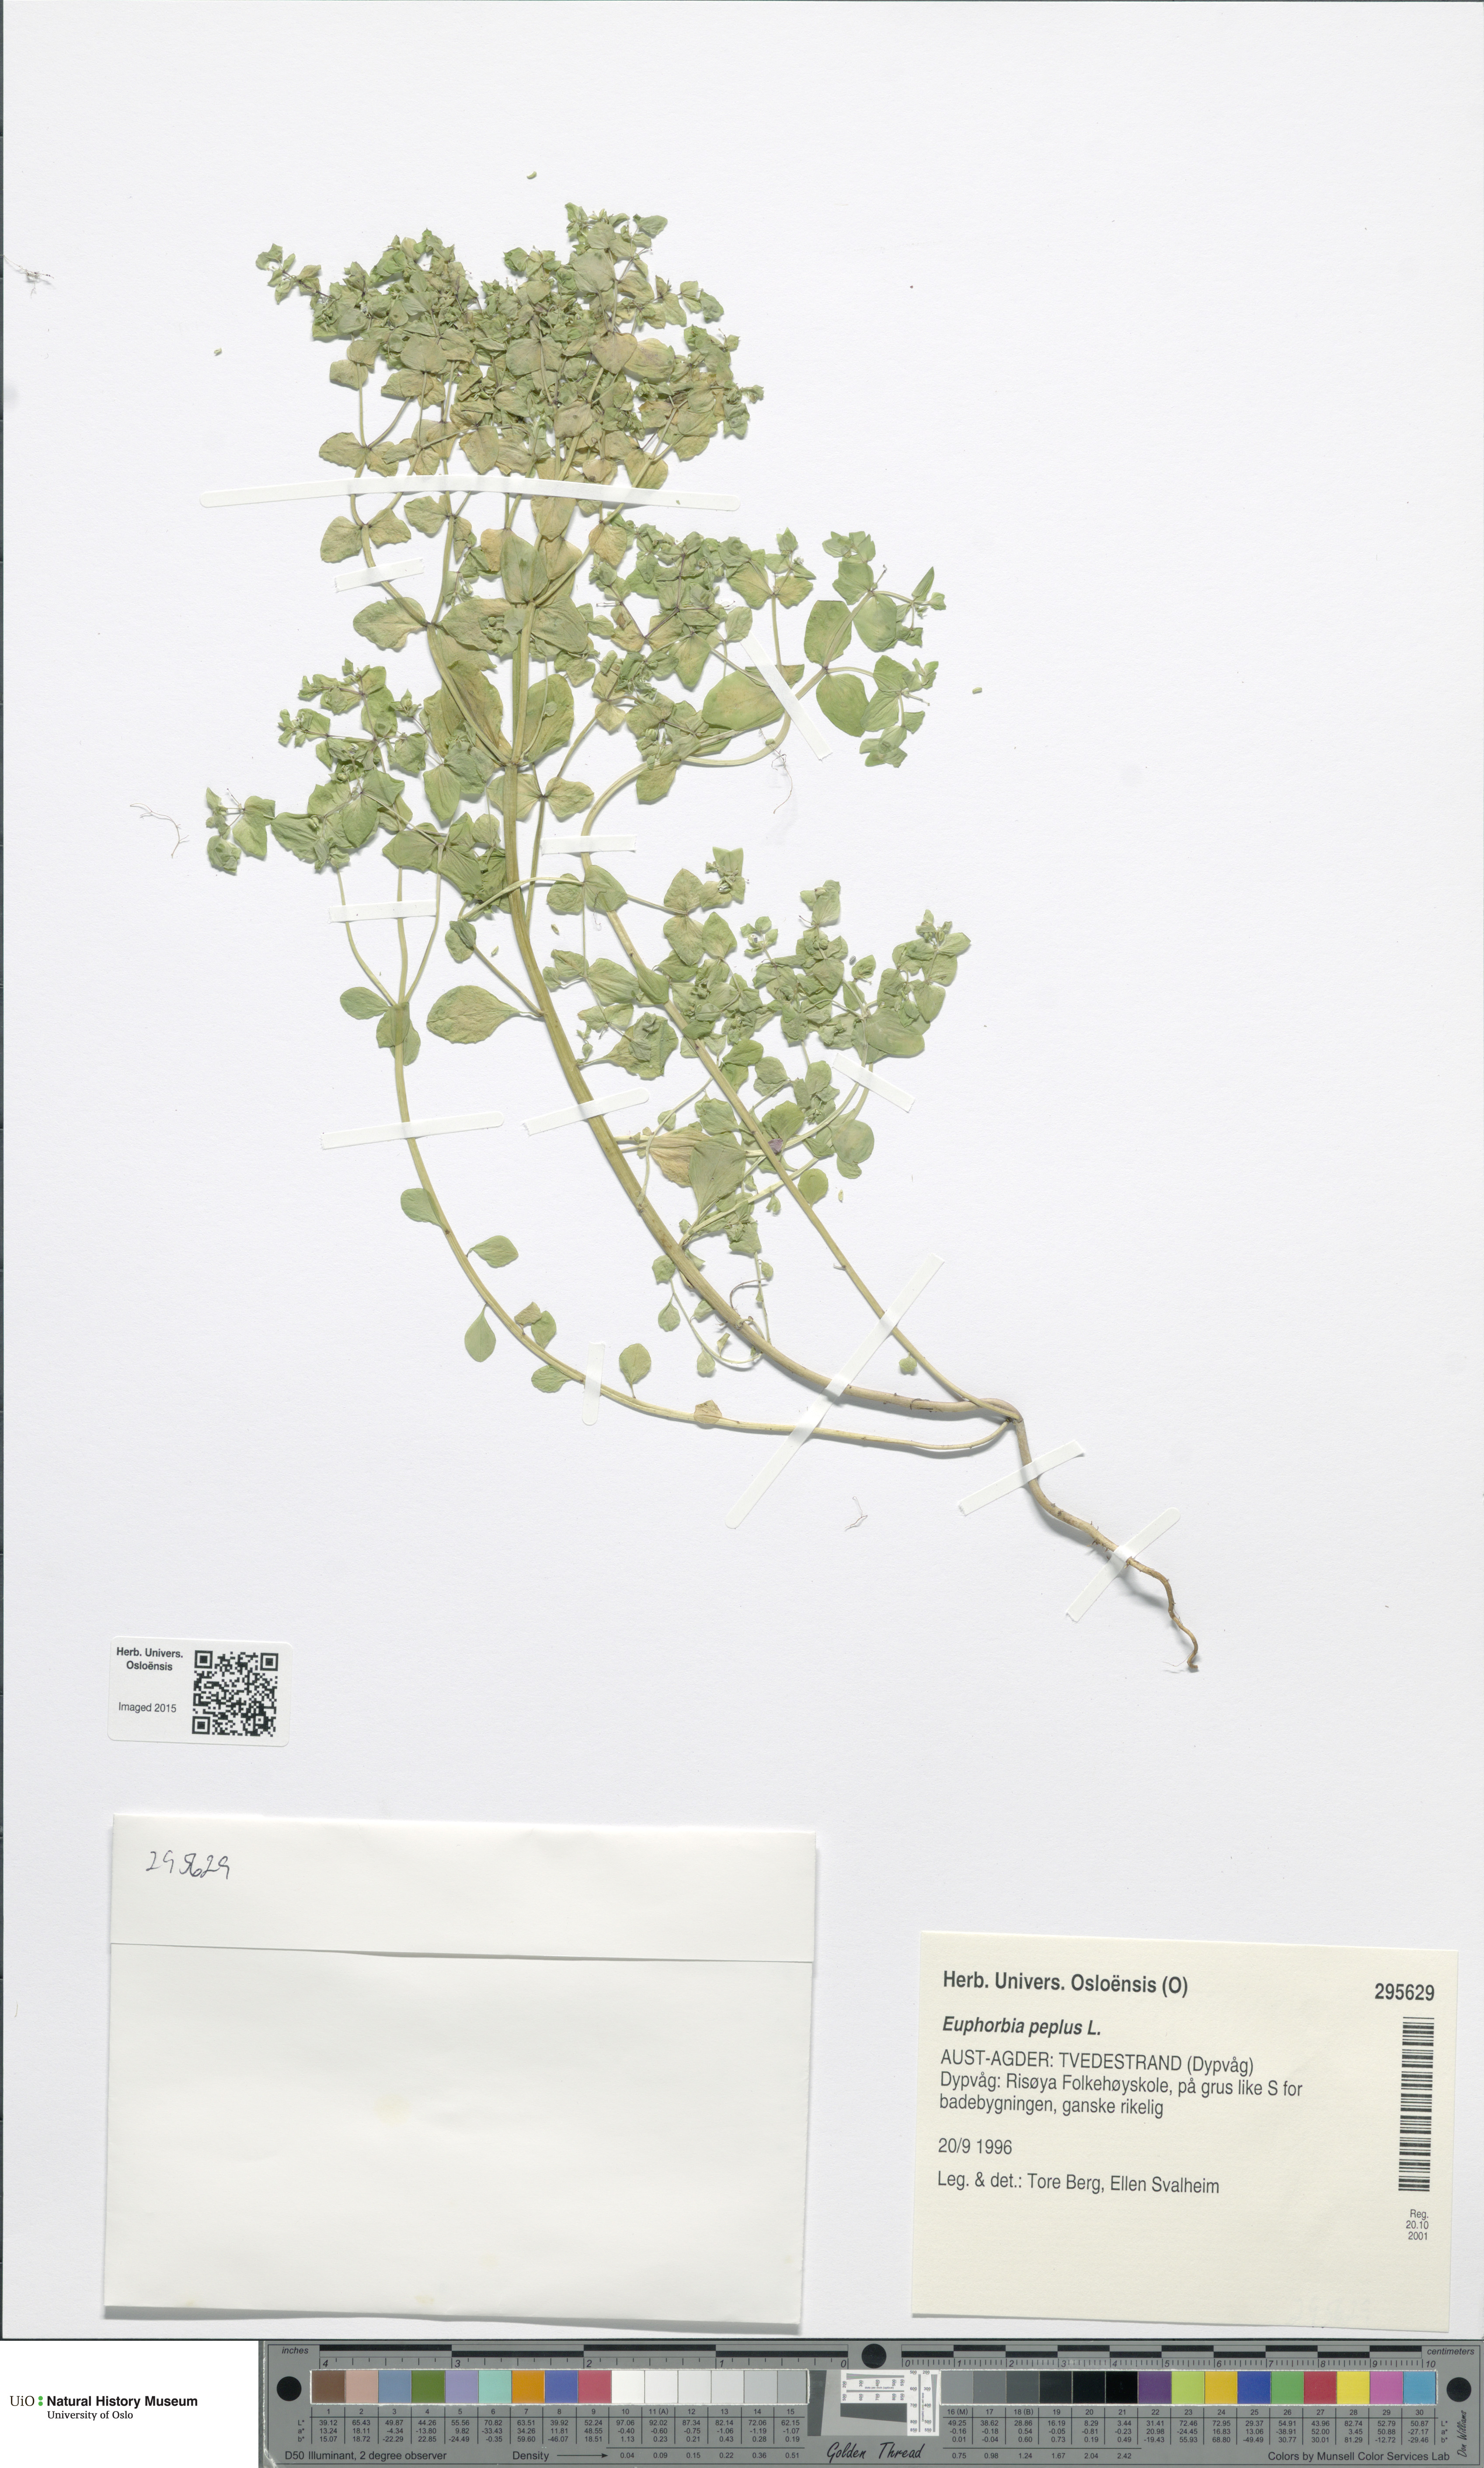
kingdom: Plantae
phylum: Tracheophyta
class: Magnoliopsida
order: Malpighiales
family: Euphorbiaceae
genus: Euphorbia
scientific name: Euphorbia peplus
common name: Petty spurge
